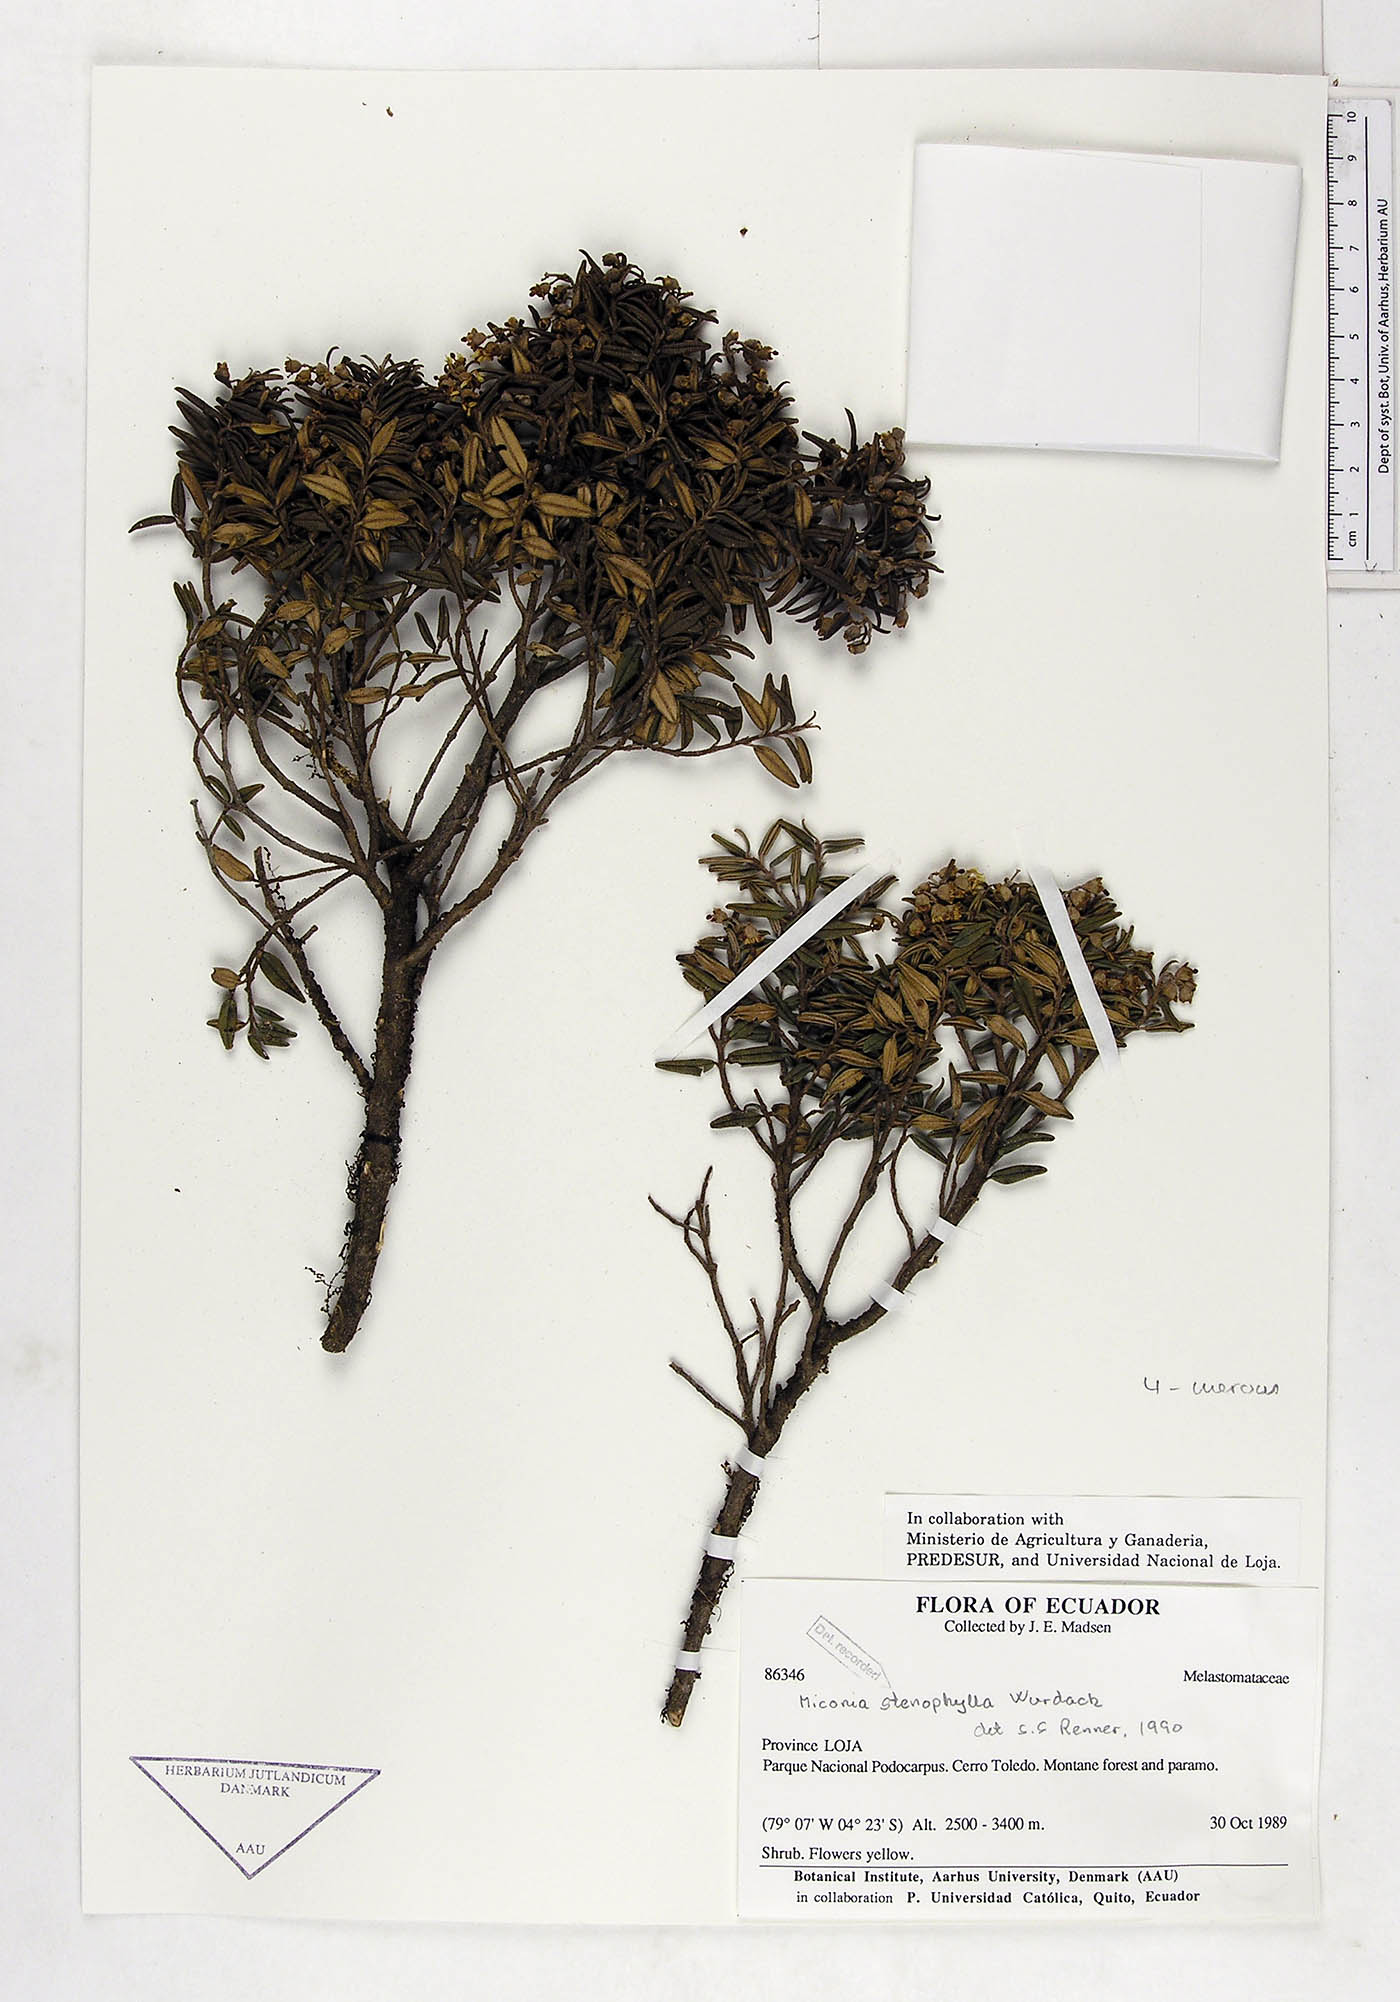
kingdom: Plantae
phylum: Tracheophyta
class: Magnoliopsida
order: Myrtales
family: Melastomataceae
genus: Miconia
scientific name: Miconia stenophylla
